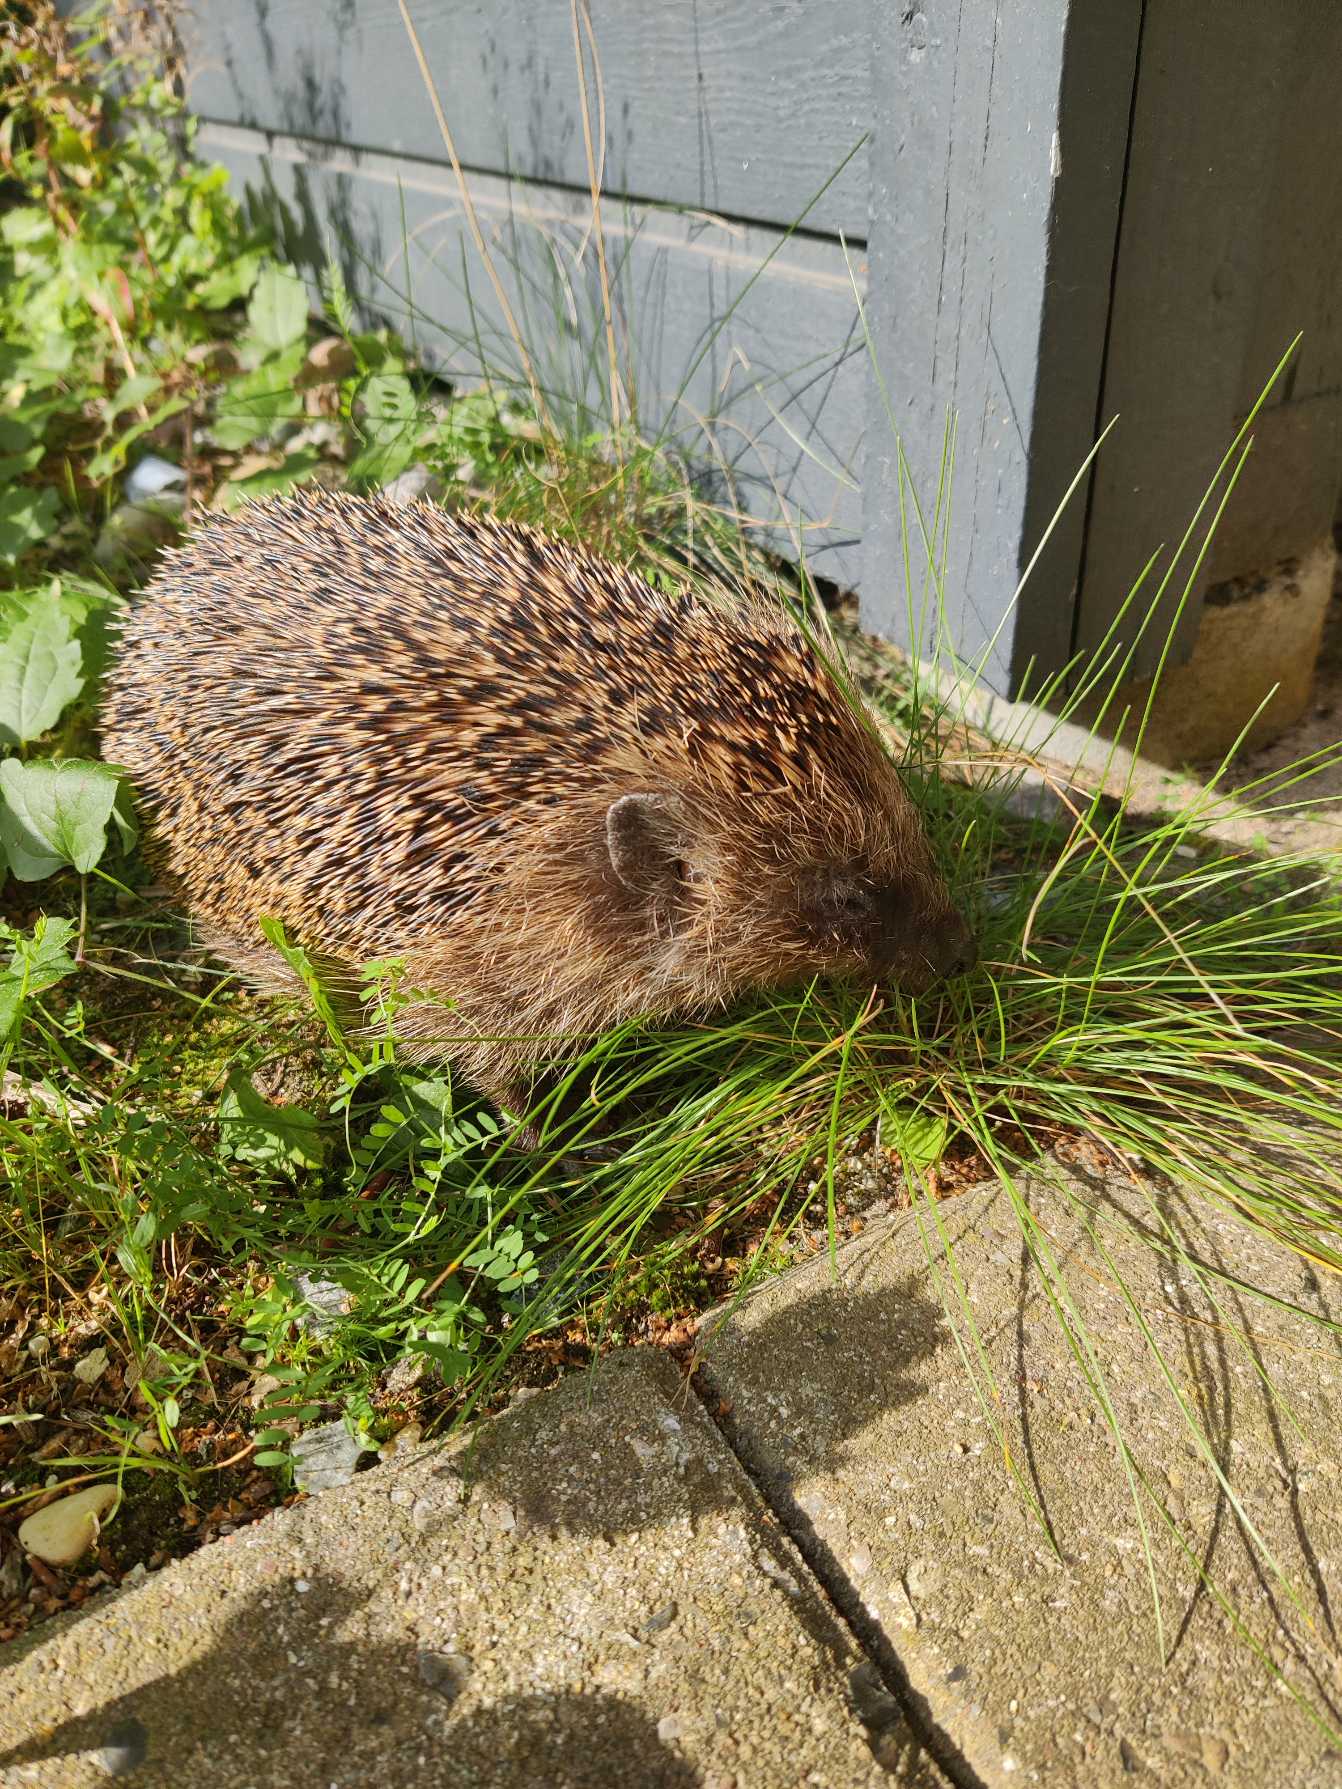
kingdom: Animalia
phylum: Chordata
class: Mammalia
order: Erinaceomorpha
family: Erinaceidae
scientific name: Erinaceidae
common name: Pindsvin
